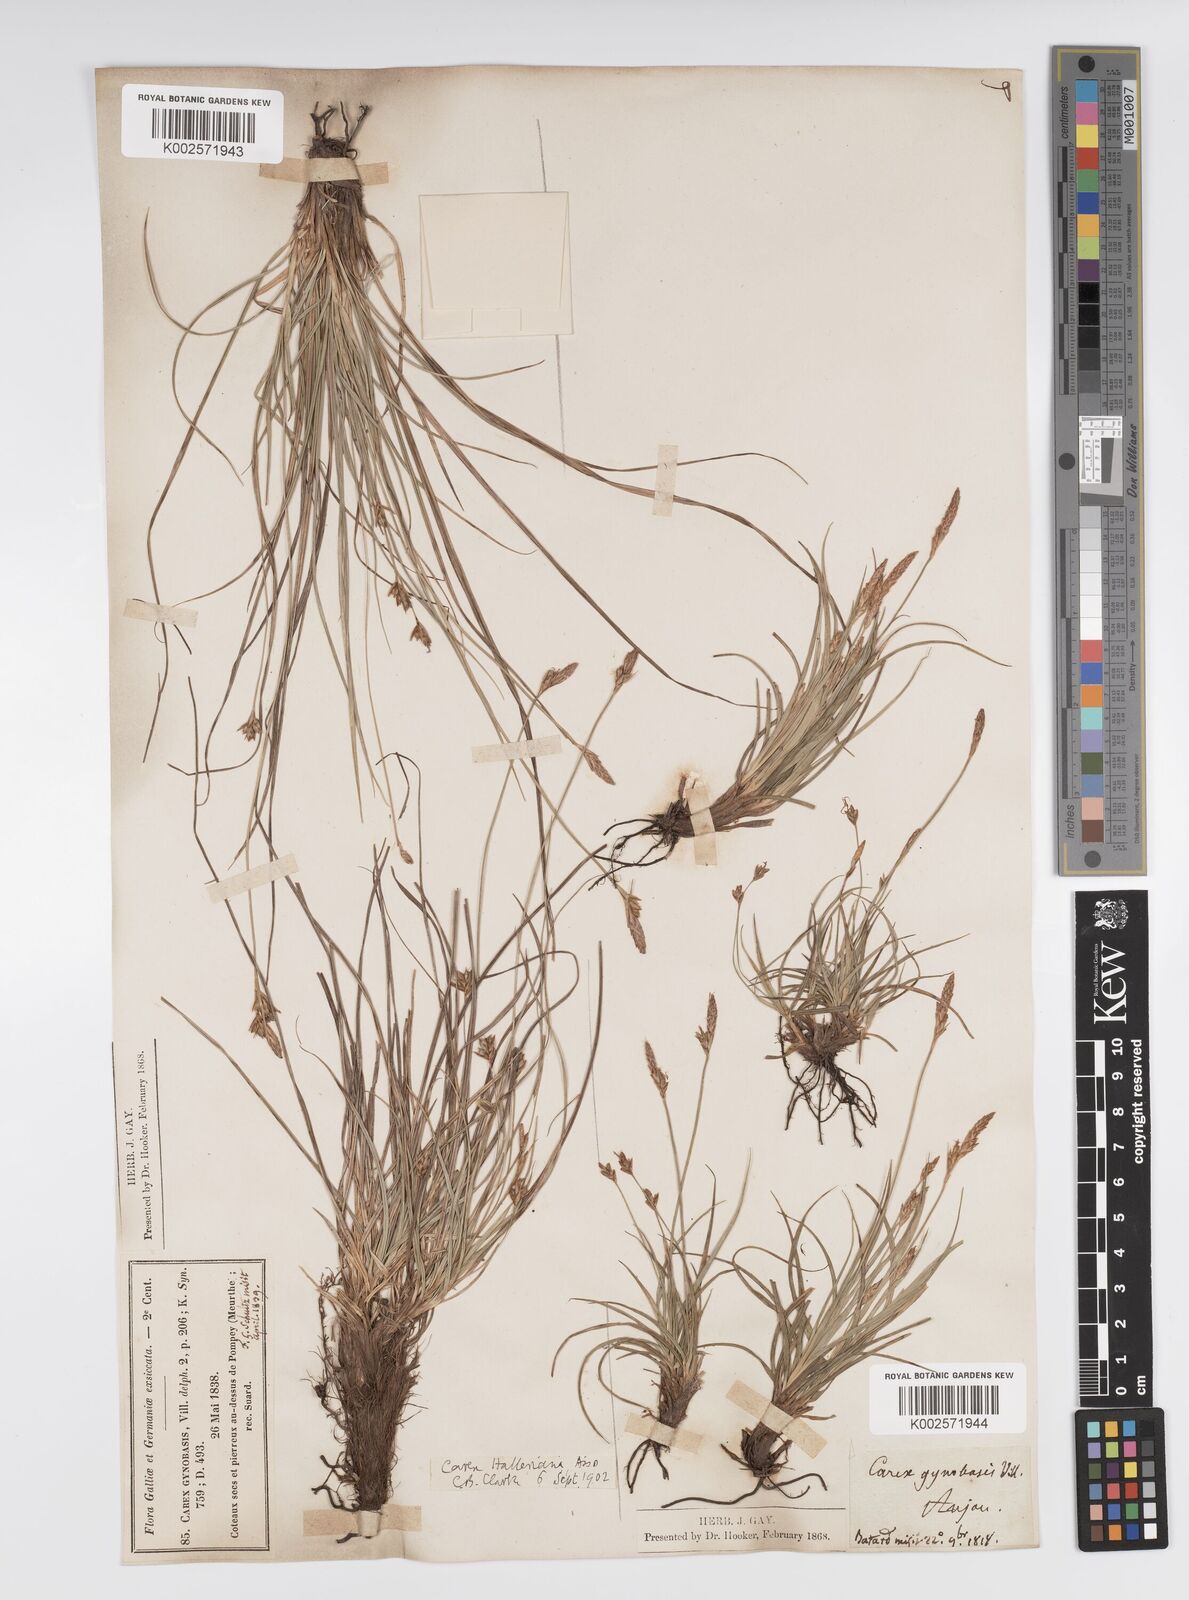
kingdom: Plantae
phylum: Tracheophyta
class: Liliopsida
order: Poales
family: Cyperaceae
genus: Carex
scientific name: Carex halleriana
